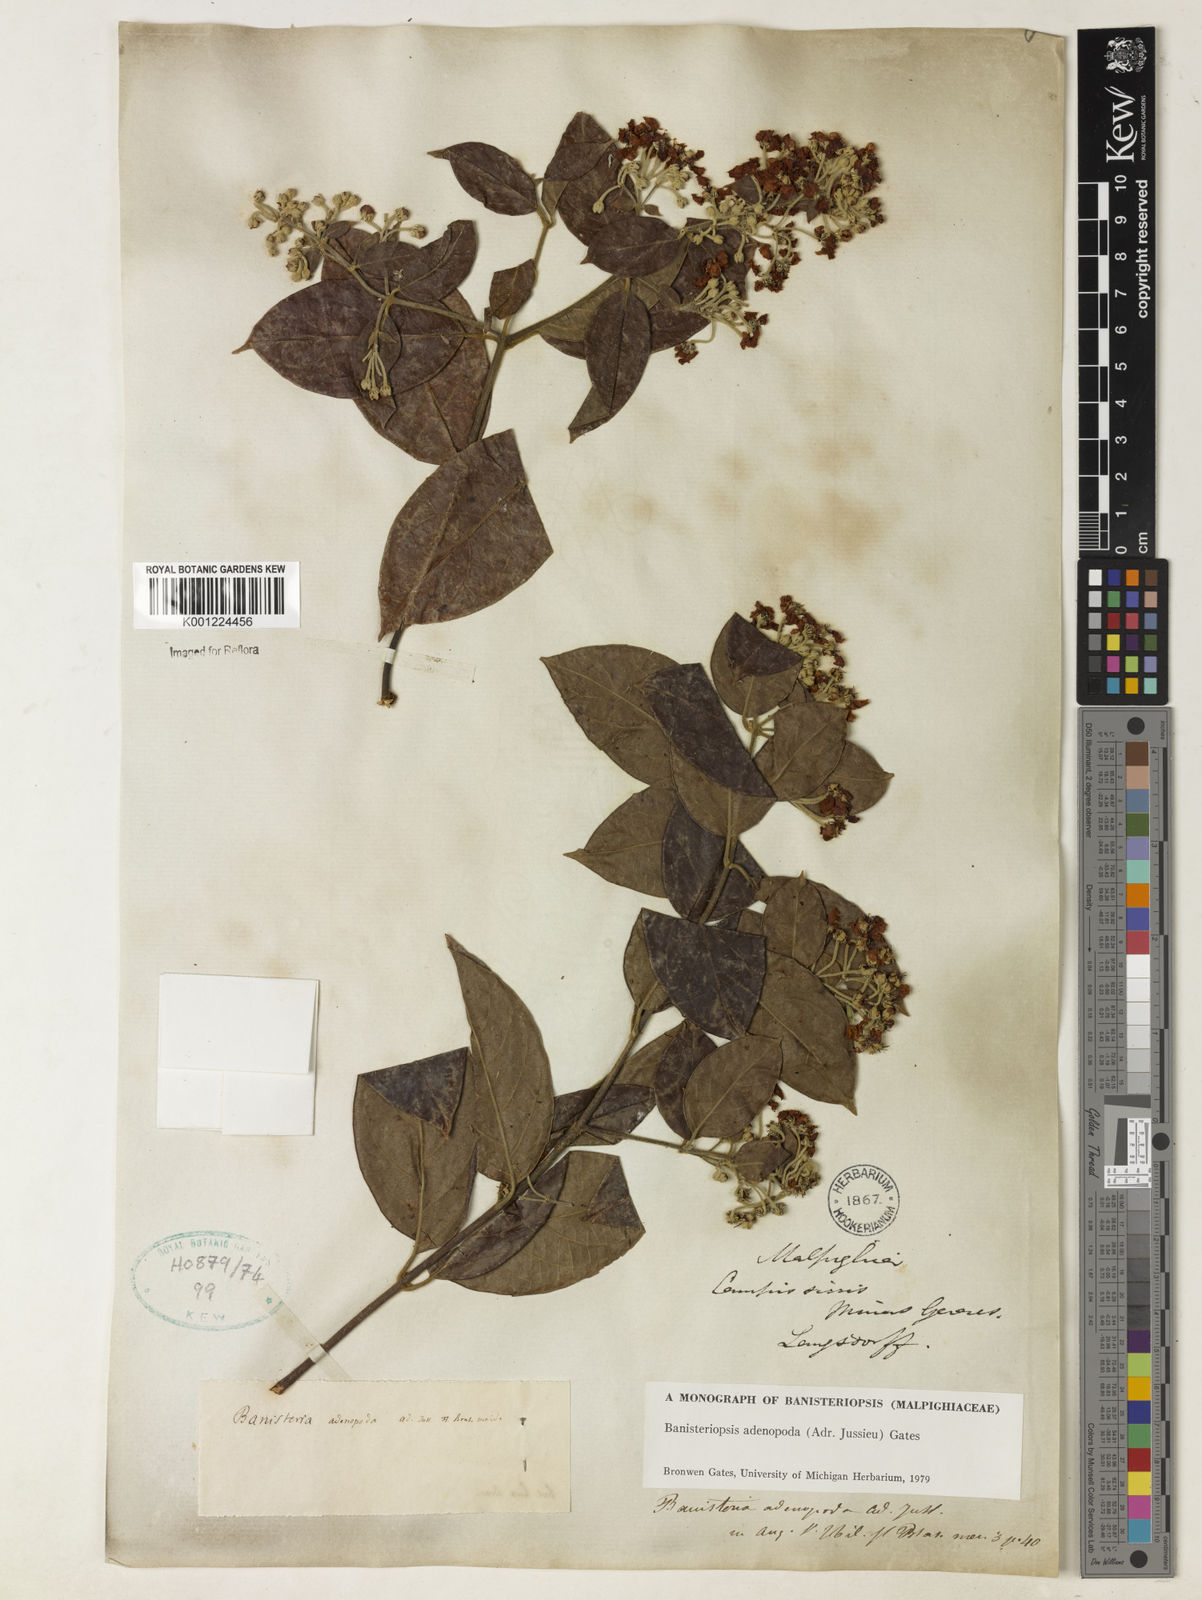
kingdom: Plantae
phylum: Tracheophyta
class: Magnoliopsida
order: Malpighiales
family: Malpighiaceae
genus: Banisteriopsis
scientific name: Banisteriopsis adenopoda
